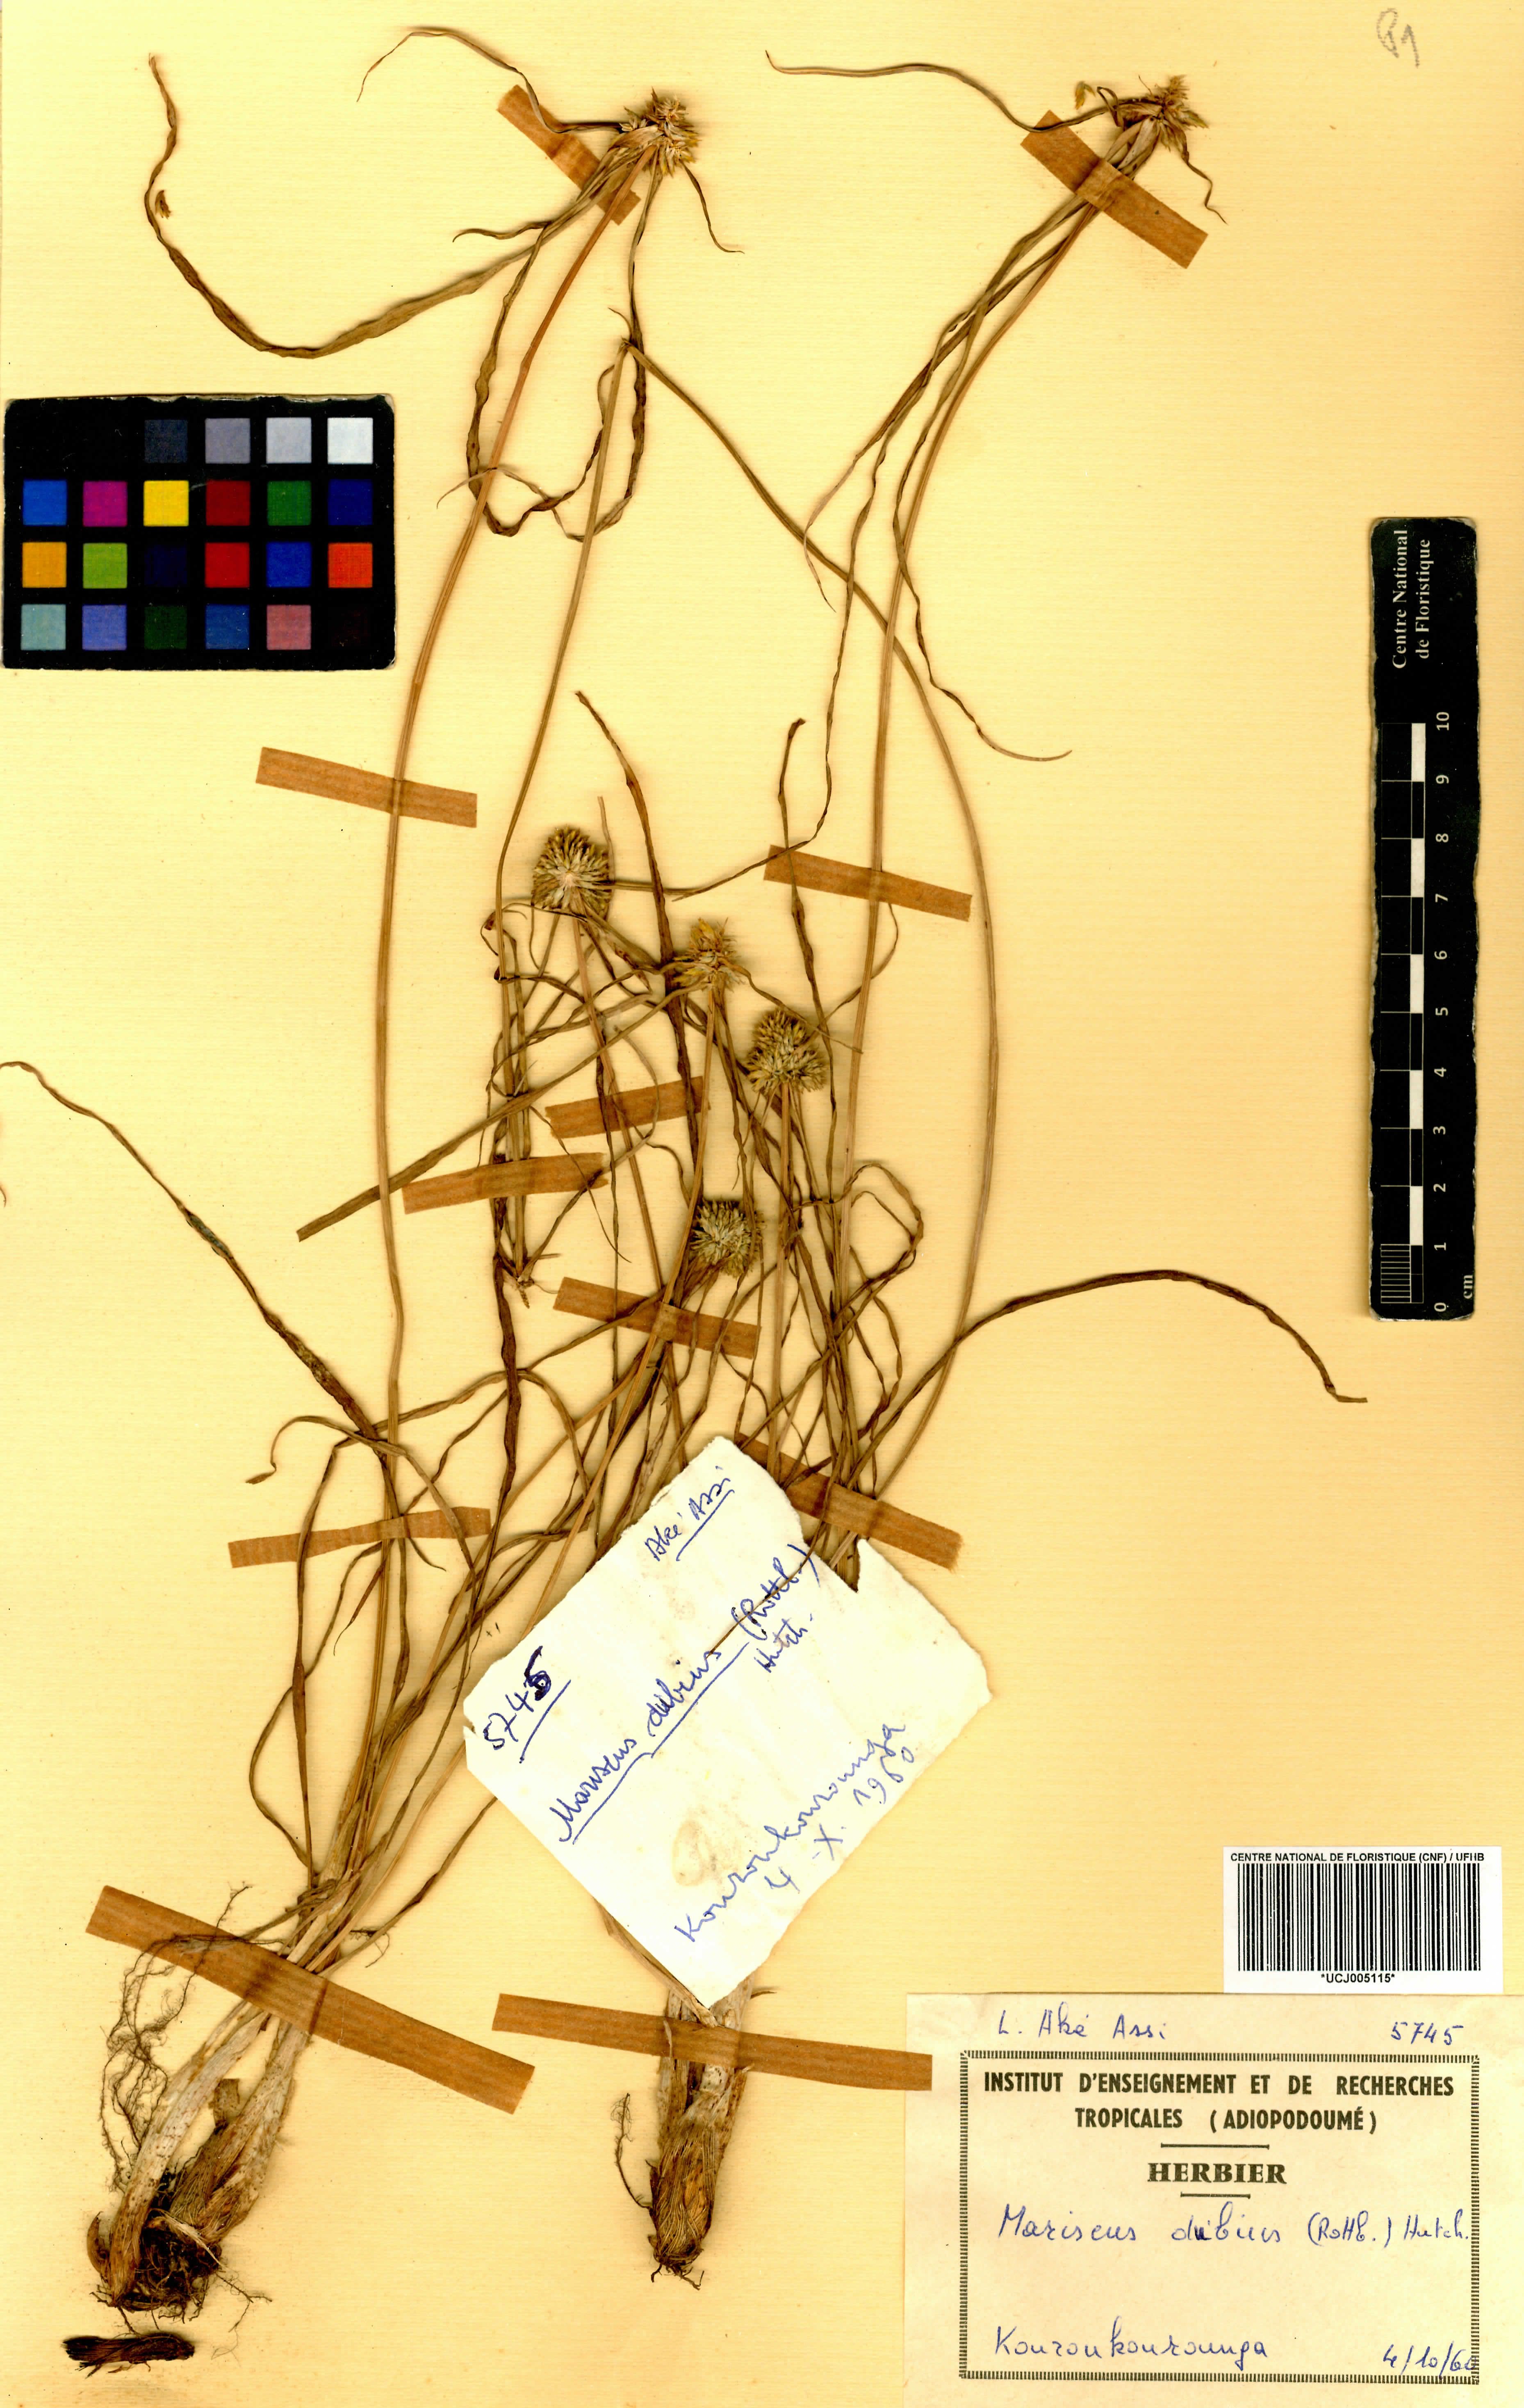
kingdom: Plantae
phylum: Tracheophyta
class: Liliopsida
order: Poales
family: Cyperaceae
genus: Cyperus
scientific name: Cyperus dubius
